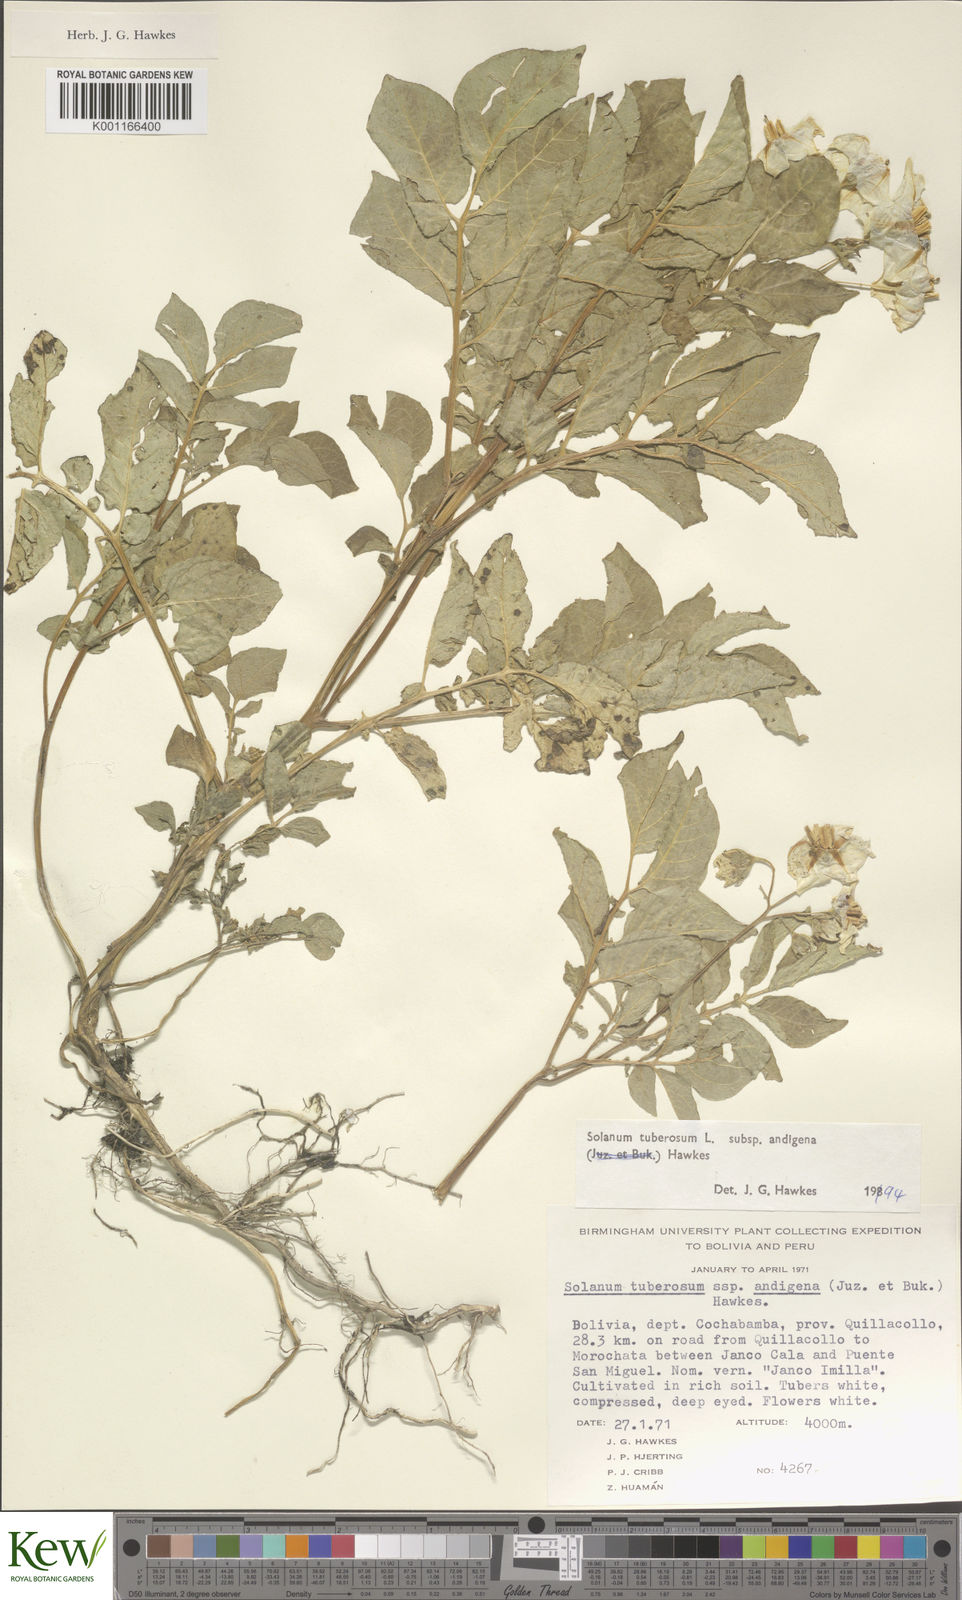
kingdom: Plantae
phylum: Tracheophyta
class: Magnoliopsida
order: Solanales
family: Solanaceae
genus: Solanum
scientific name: Solanum tuberosum
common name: Potato
